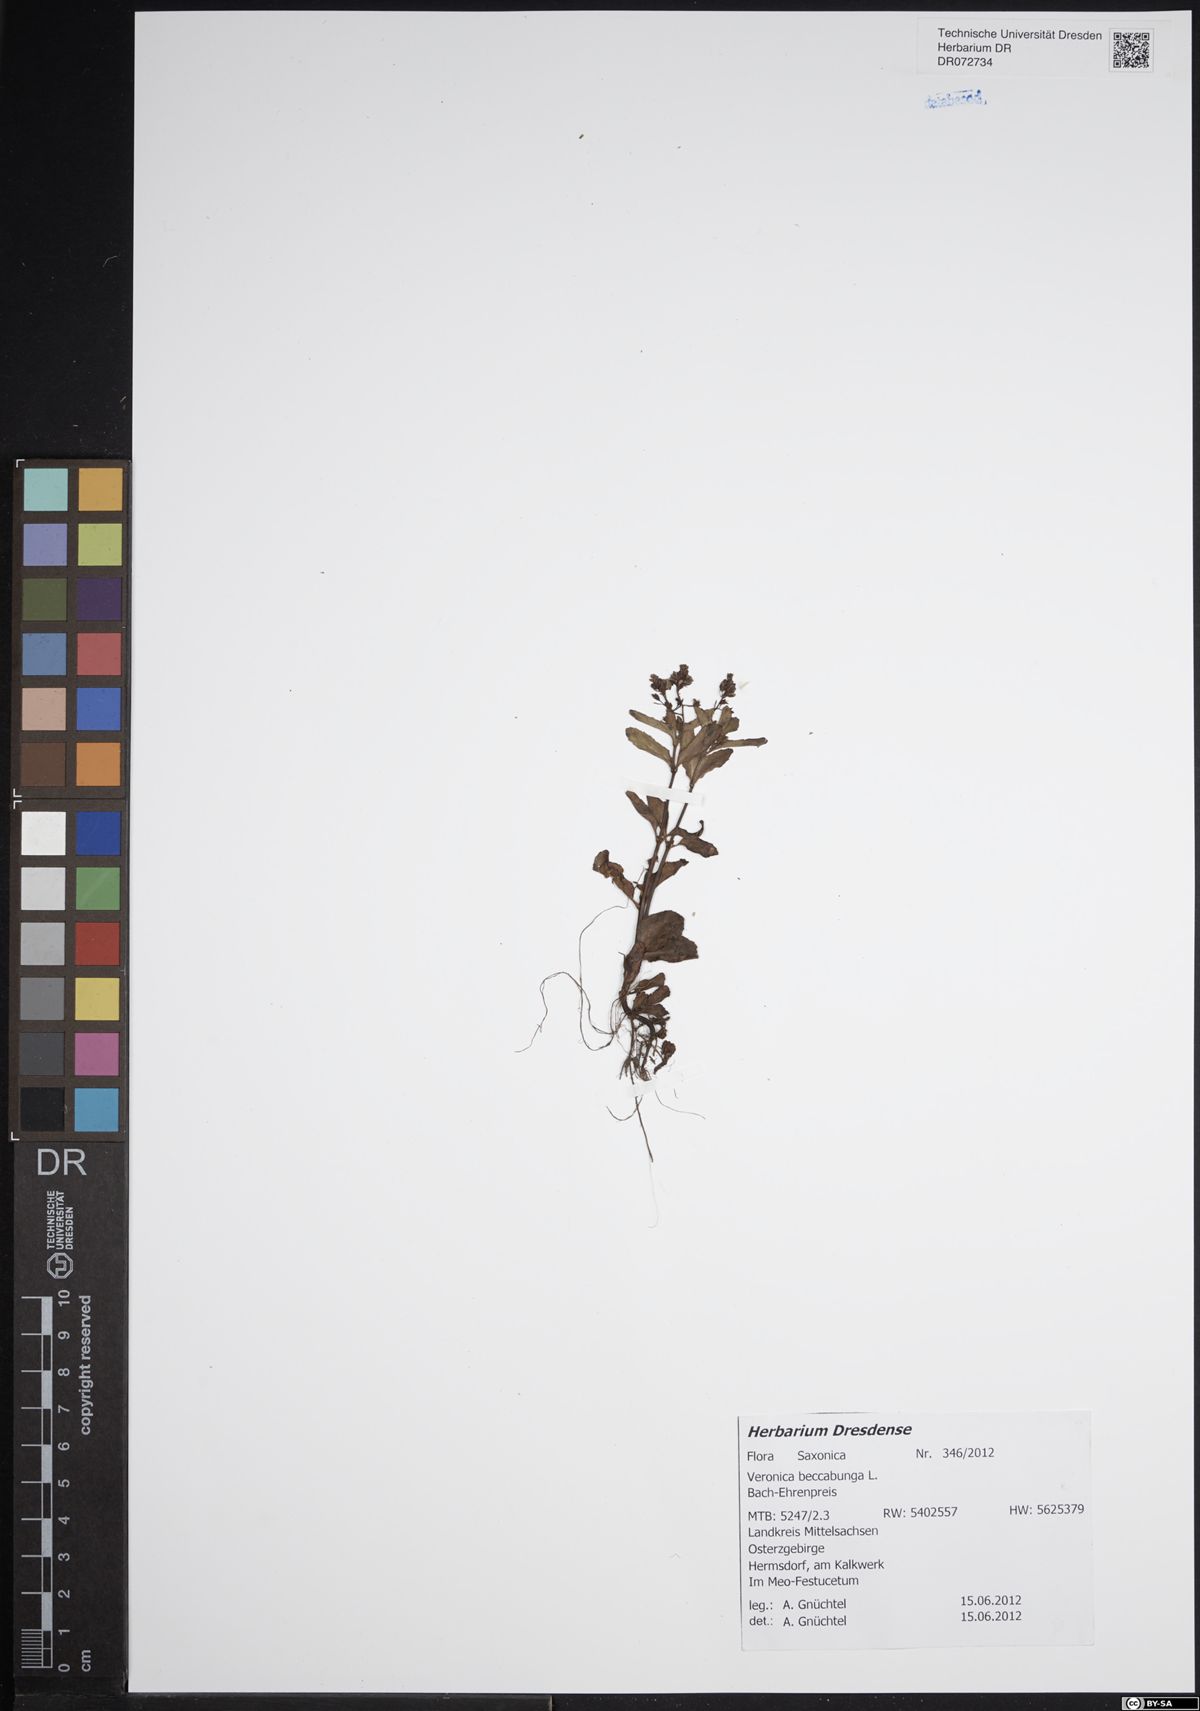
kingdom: Plantae
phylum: Tracheophyta
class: Magnoliopsida
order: Lamiales
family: Plantaginaceae
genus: Veronica
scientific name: Veronica beccabunga
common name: Brooklime
